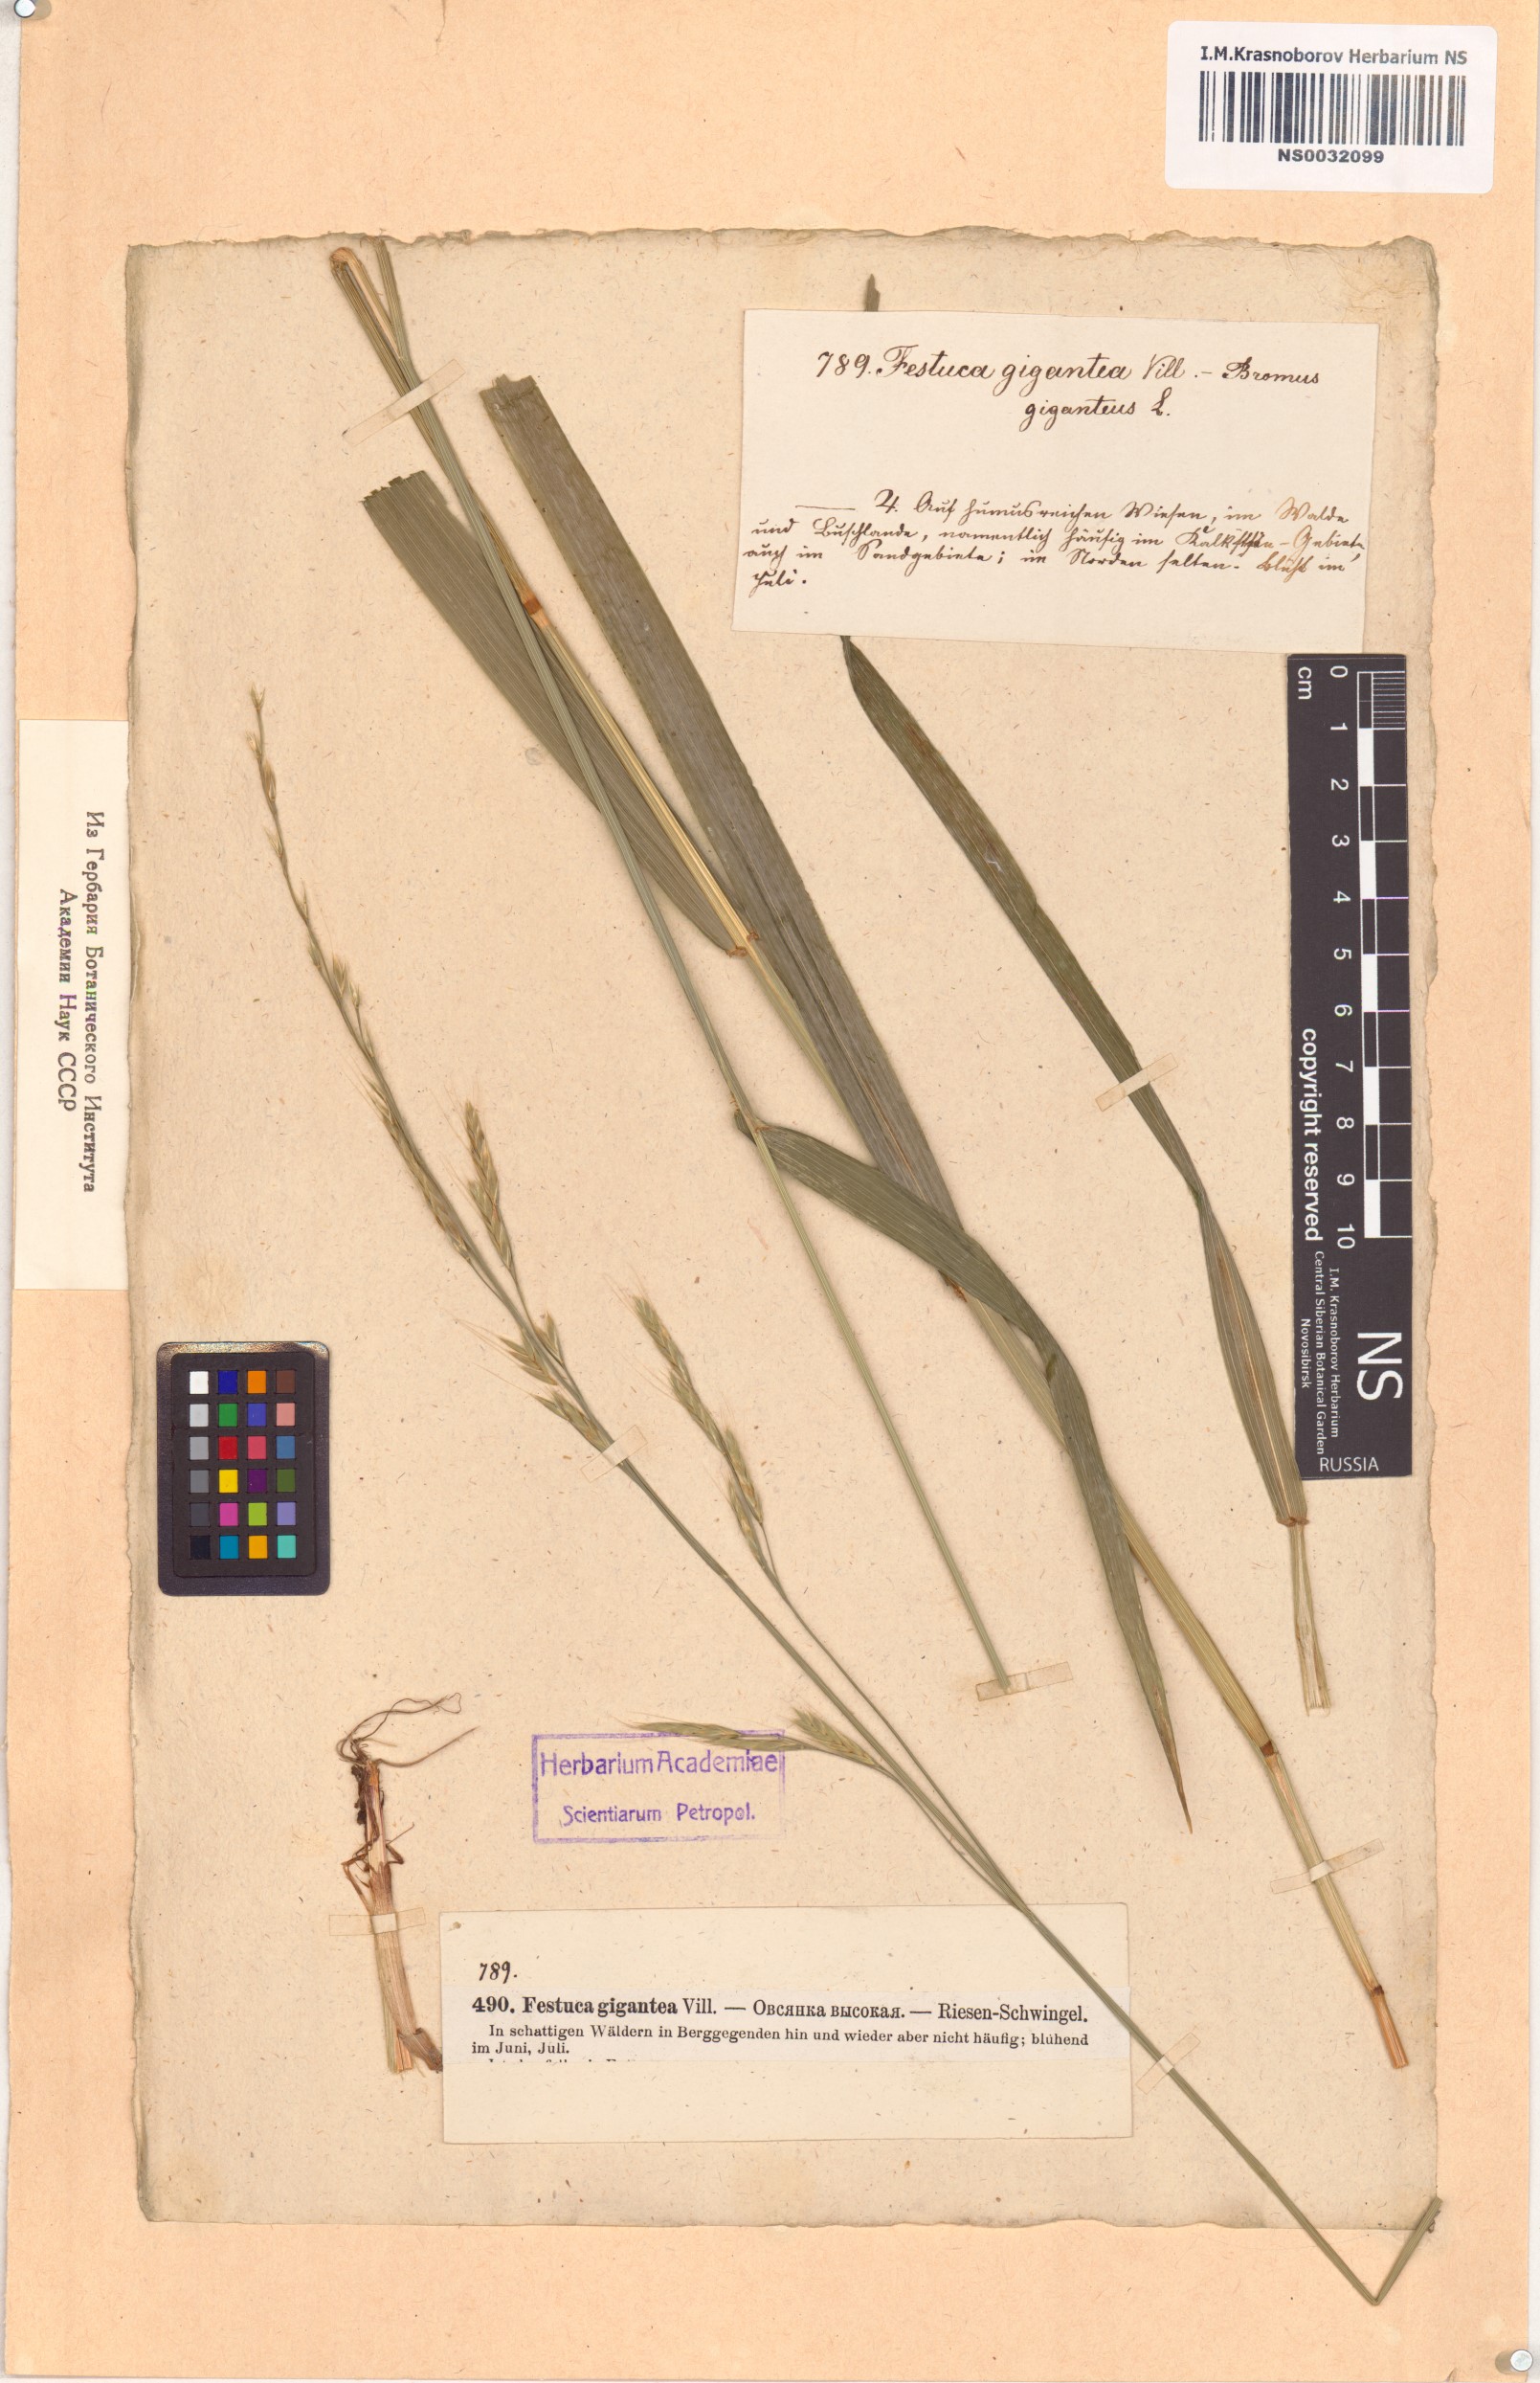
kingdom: Plantae
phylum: Tracheophyta
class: Liliopsida
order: Poales
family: Poaceae
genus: Lolium
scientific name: Lolium giganteum
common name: Giant fescue
